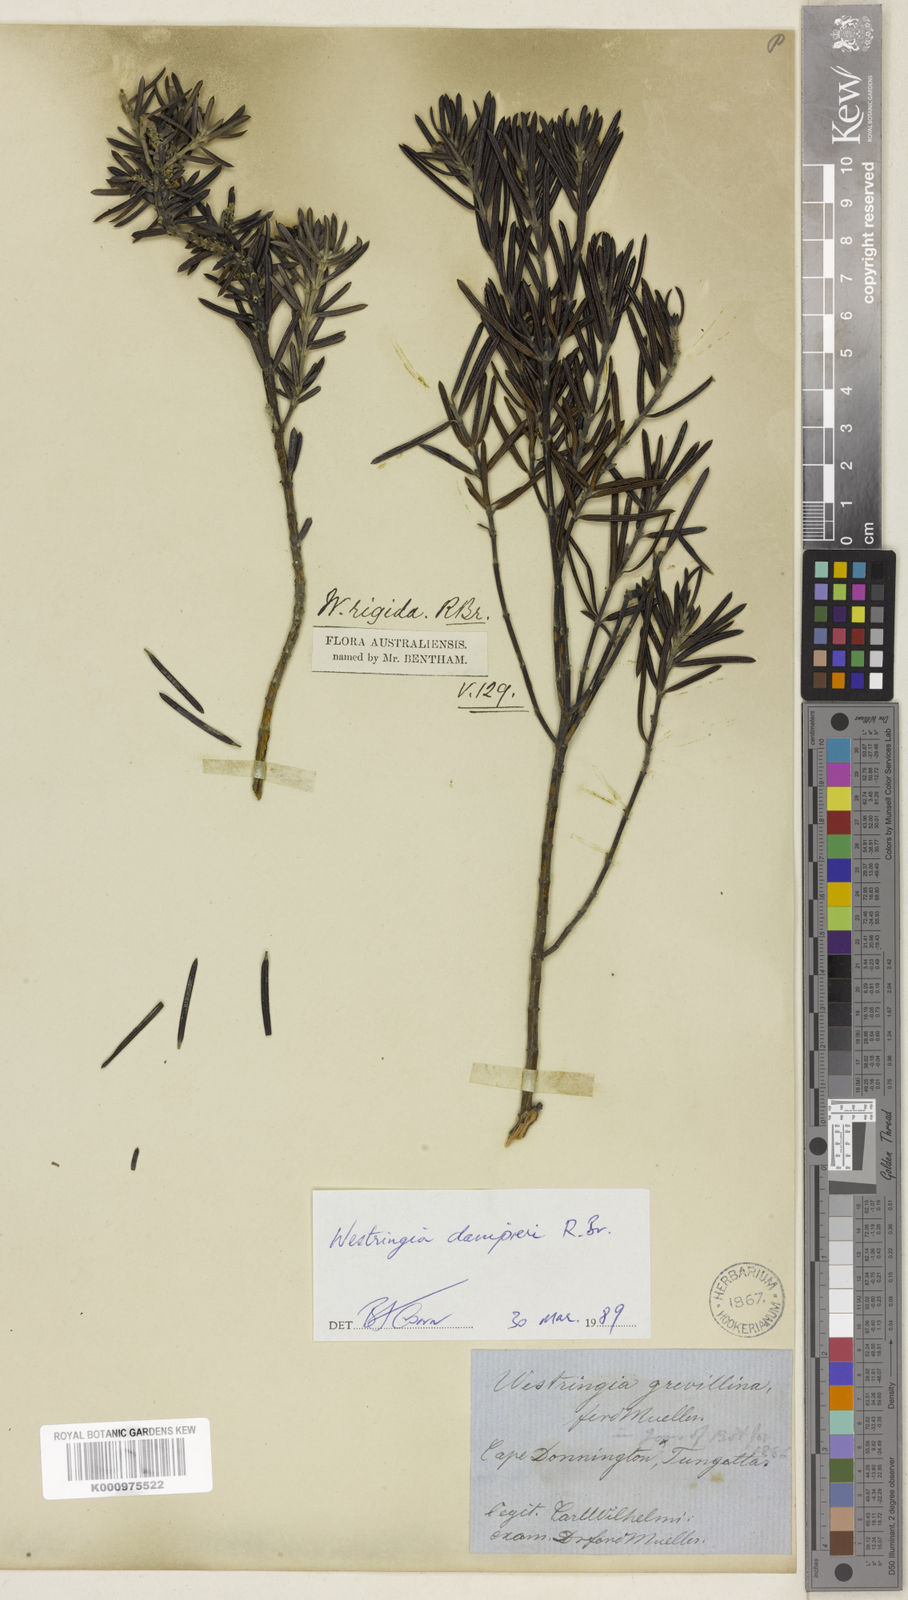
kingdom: Plantae
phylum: Tracheophyta
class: Magnoliopsida
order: Lamiales
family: Lamiaceae
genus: Westringia
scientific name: Westringia dampieri
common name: Shore westringia
